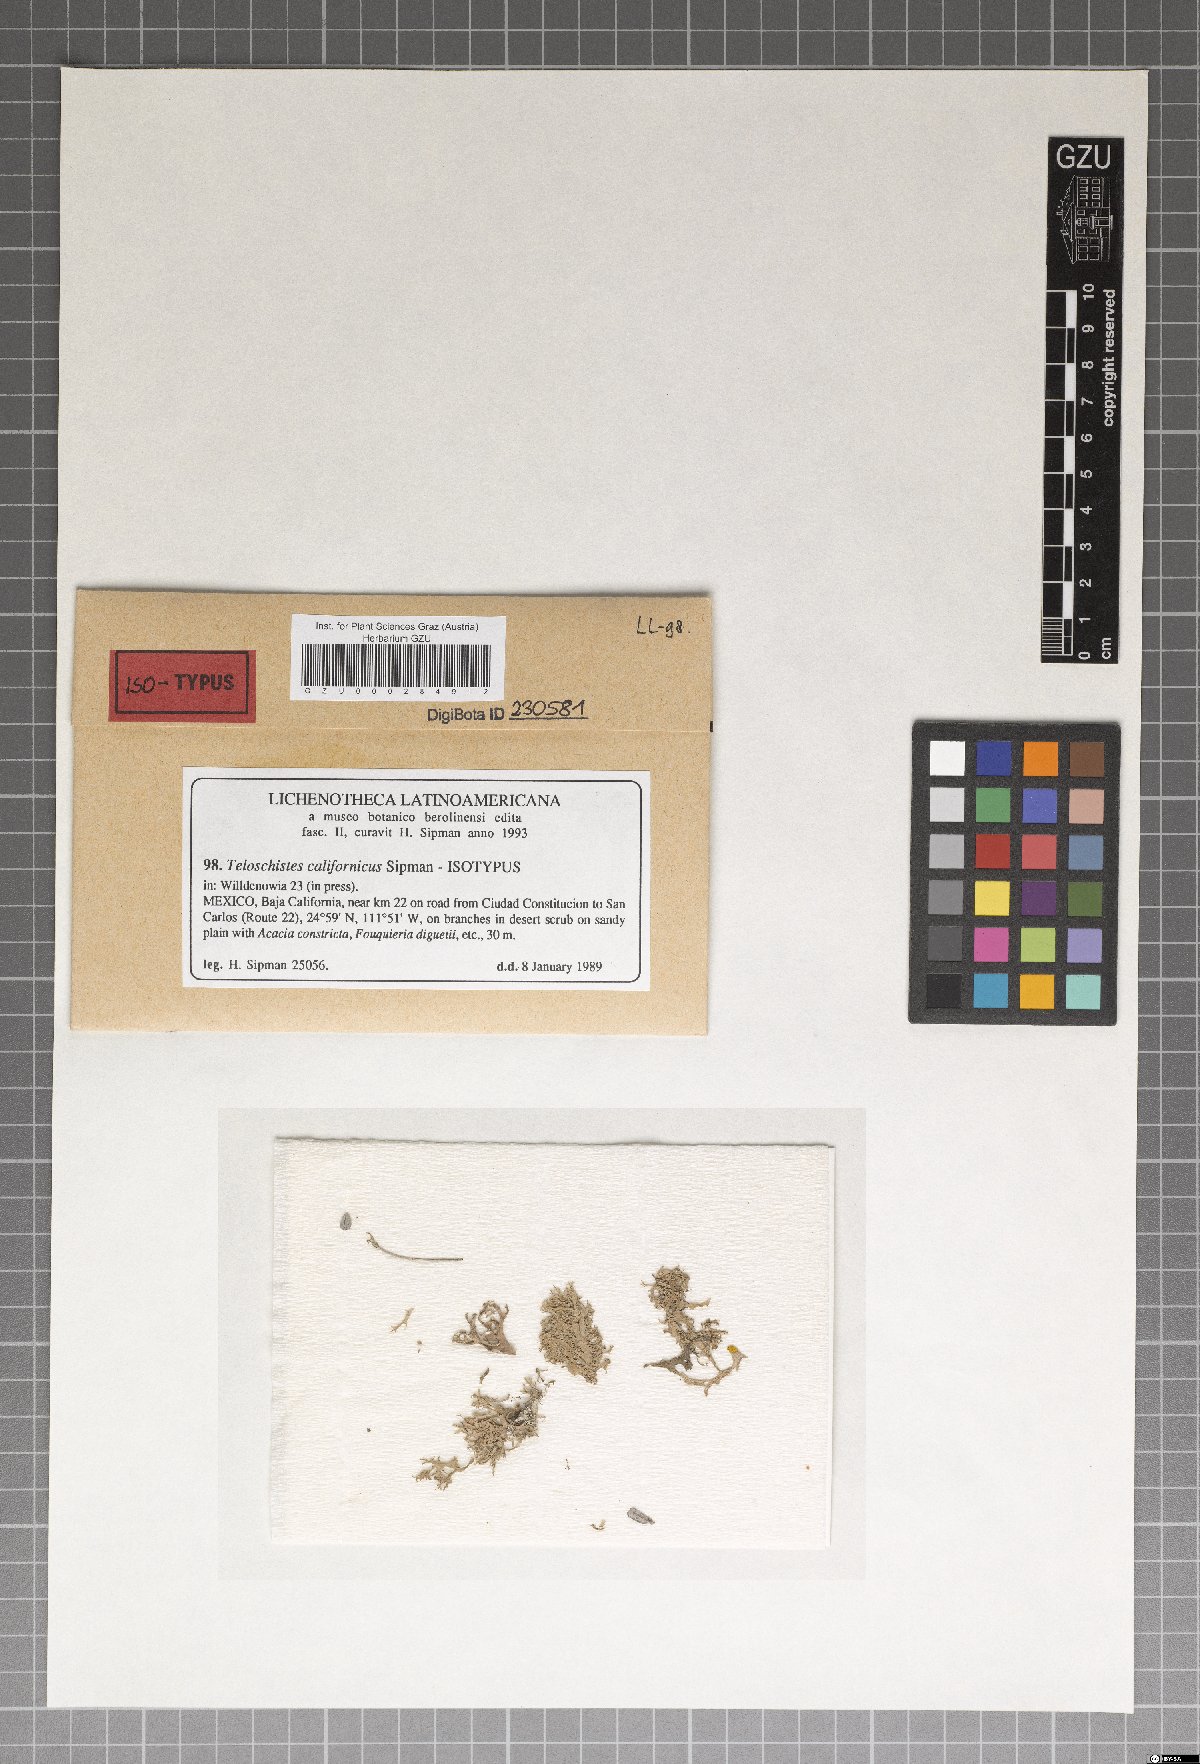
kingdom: Fungi
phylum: Ascomycota
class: Lecanoromycetes
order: Teloschistales
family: Teloschistaceae
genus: Seirophora
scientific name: Seirophora californica
